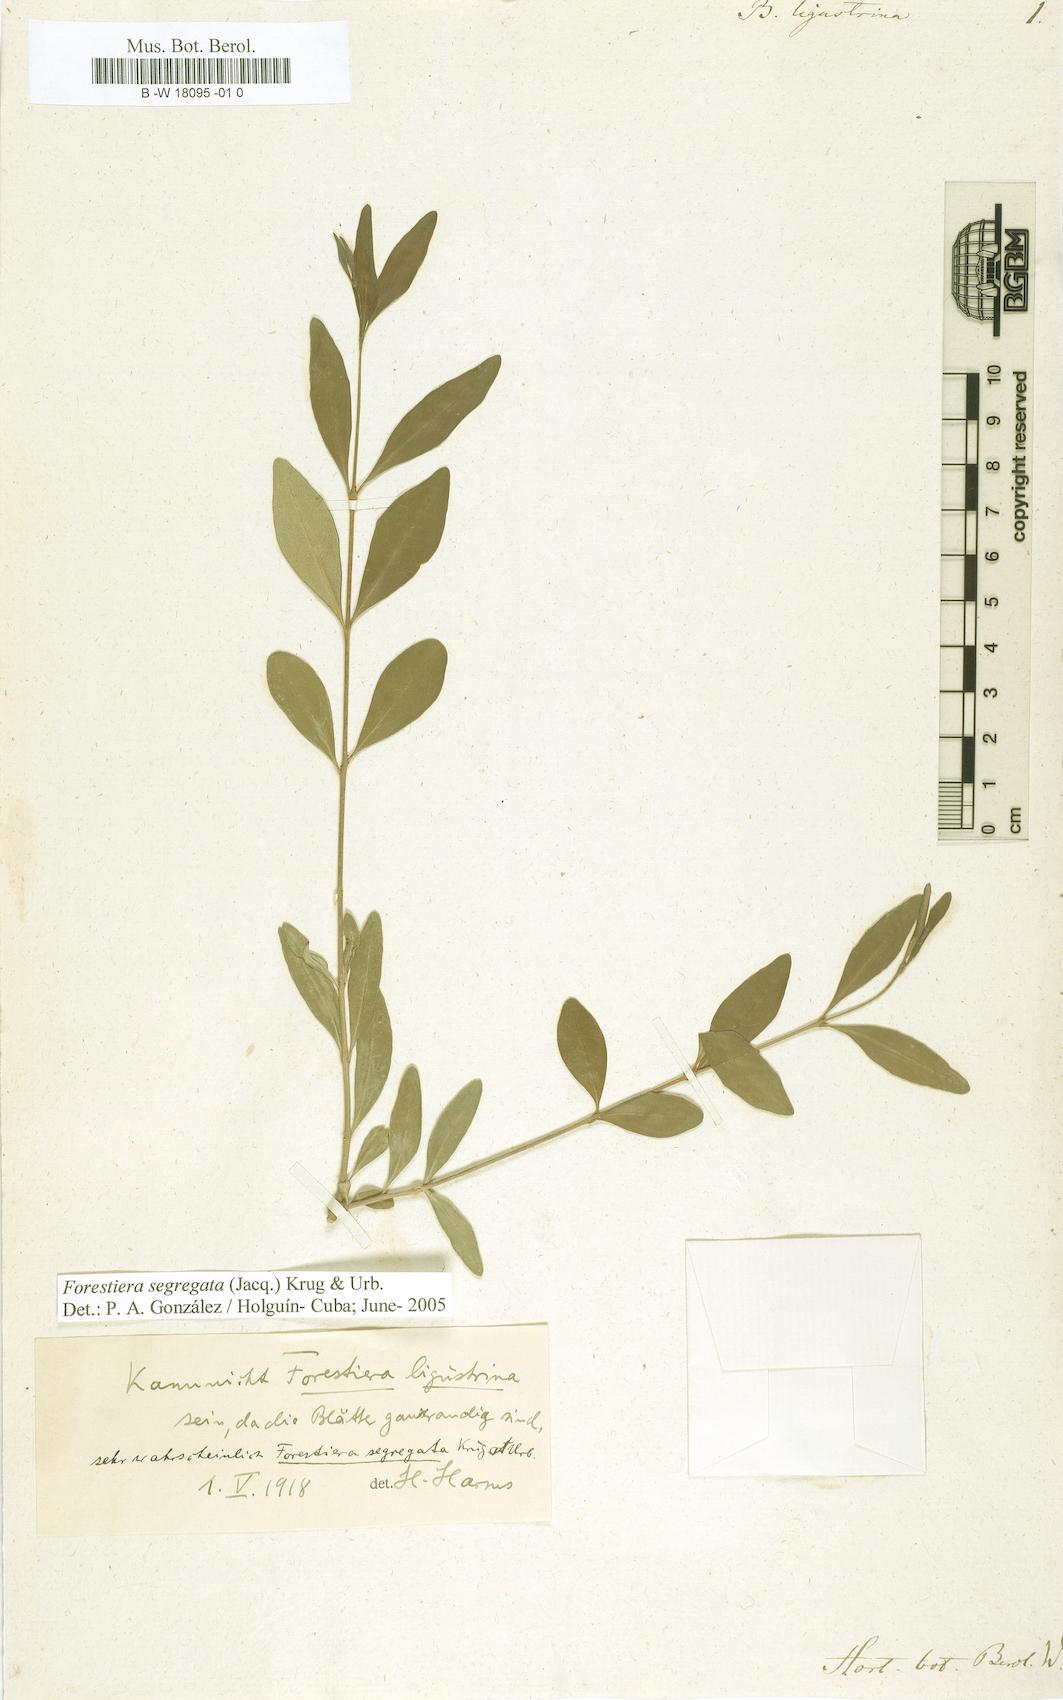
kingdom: Plantae
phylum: Tracheophyta
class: Magnoliopsida
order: Lamiales
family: Oleaceae
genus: Forestiera
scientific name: Forestiera ligustrina
